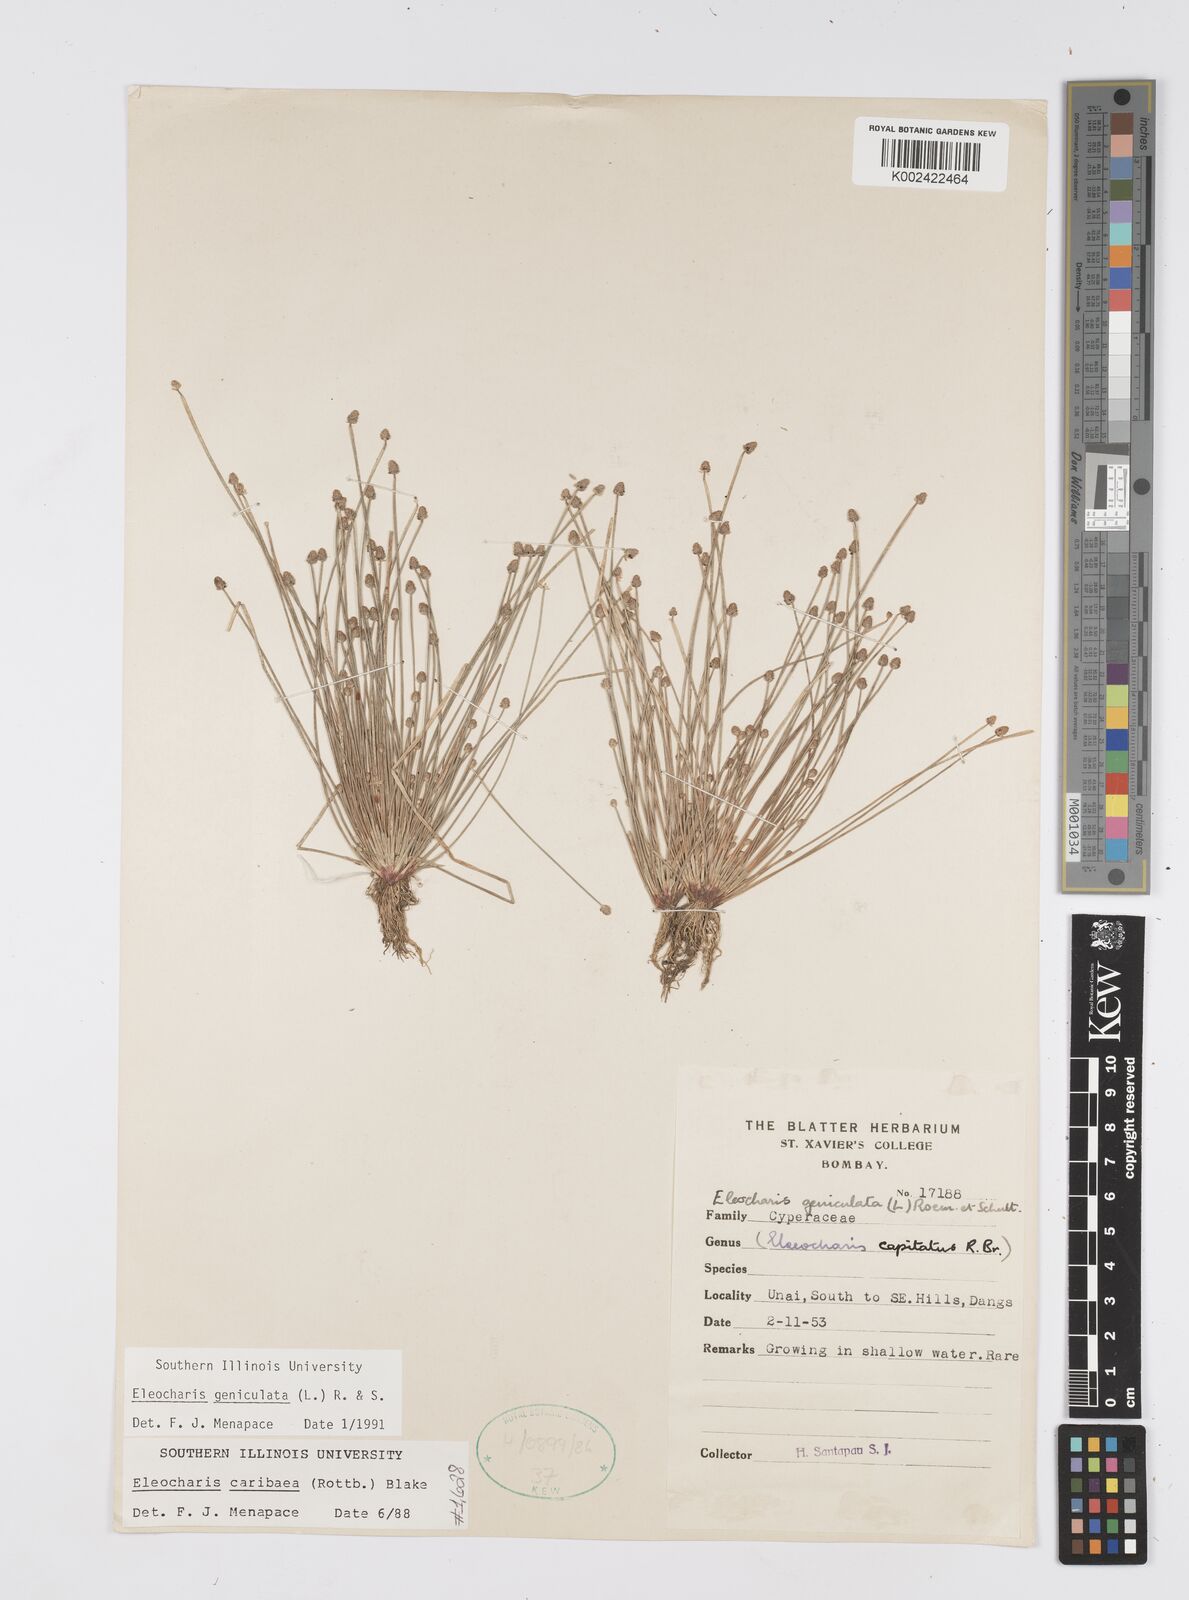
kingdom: Plantae
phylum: Tracheophyta
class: Liliopsida
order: Poales
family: Cyperaceae
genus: Eleocharis
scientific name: Eleocharis geniculata
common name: Canada spikesedge
